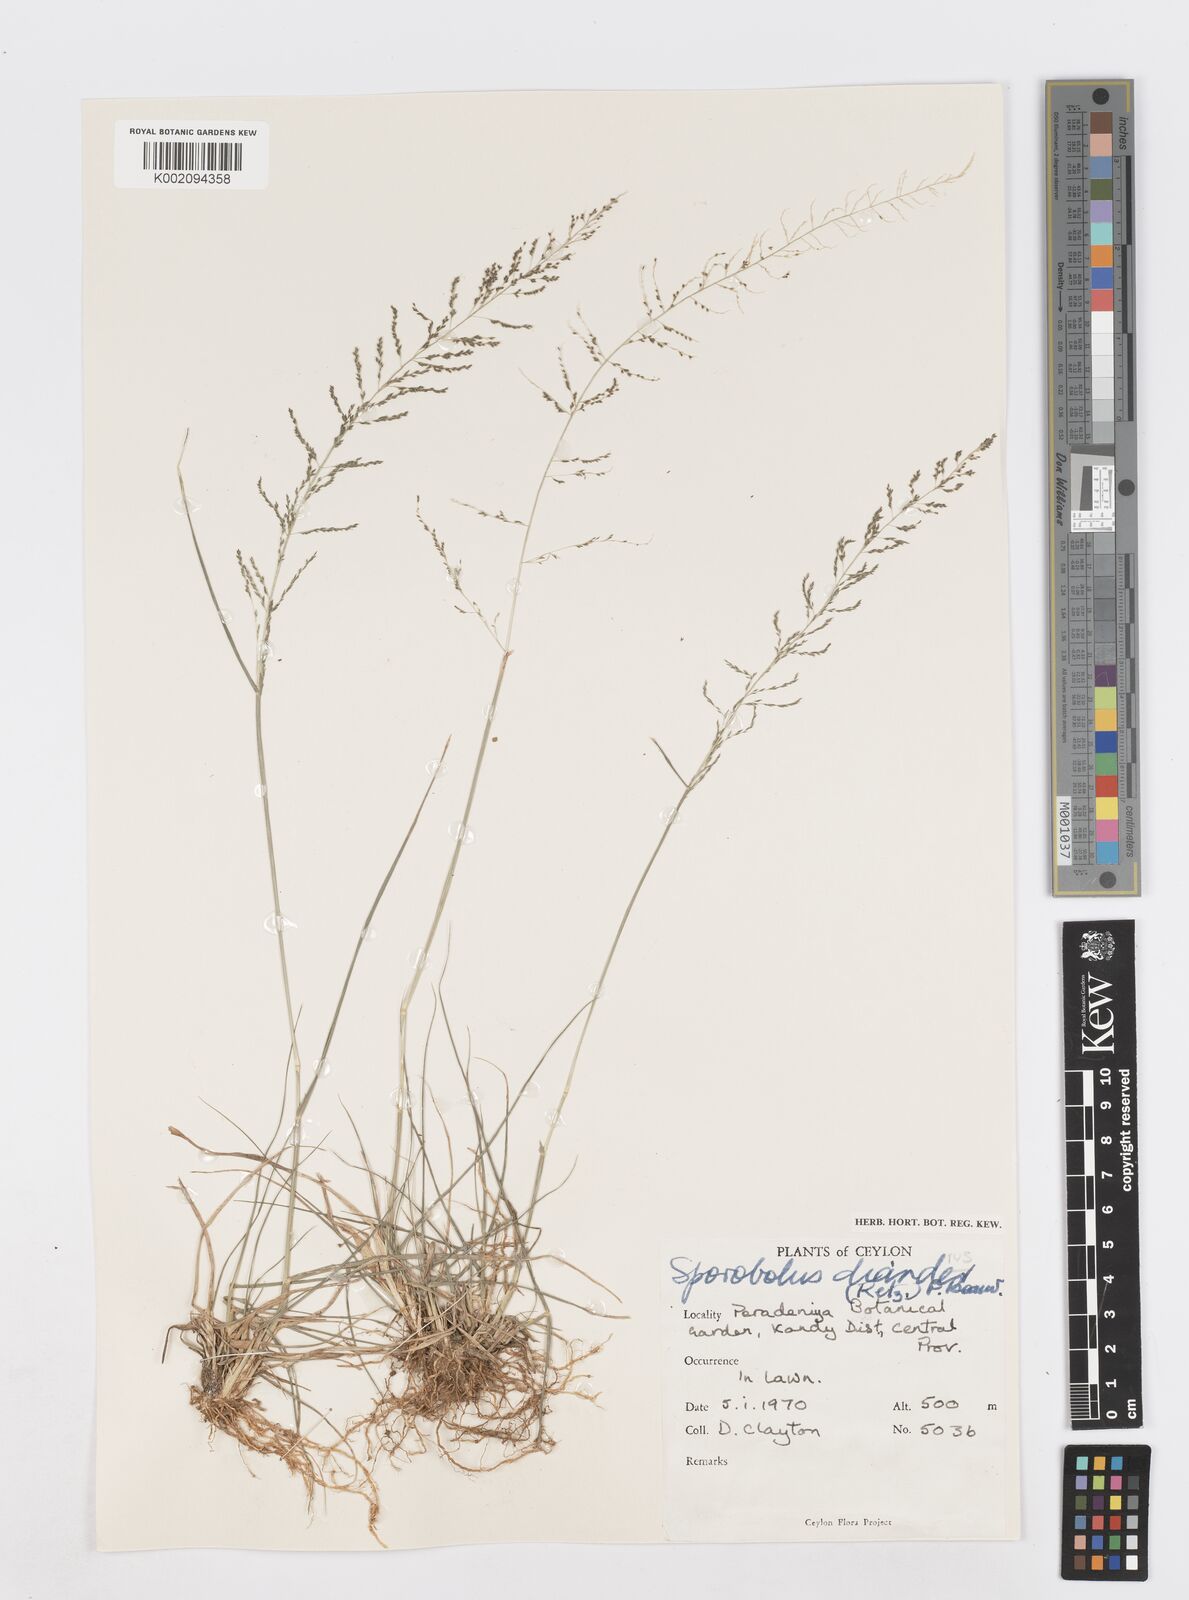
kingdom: Plantae
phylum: Tracheophyta
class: Liliopsida
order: Poales
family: Poaceae
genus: Sporobolus
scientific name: Sporobolus diandrus
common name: Tussock dropseed
